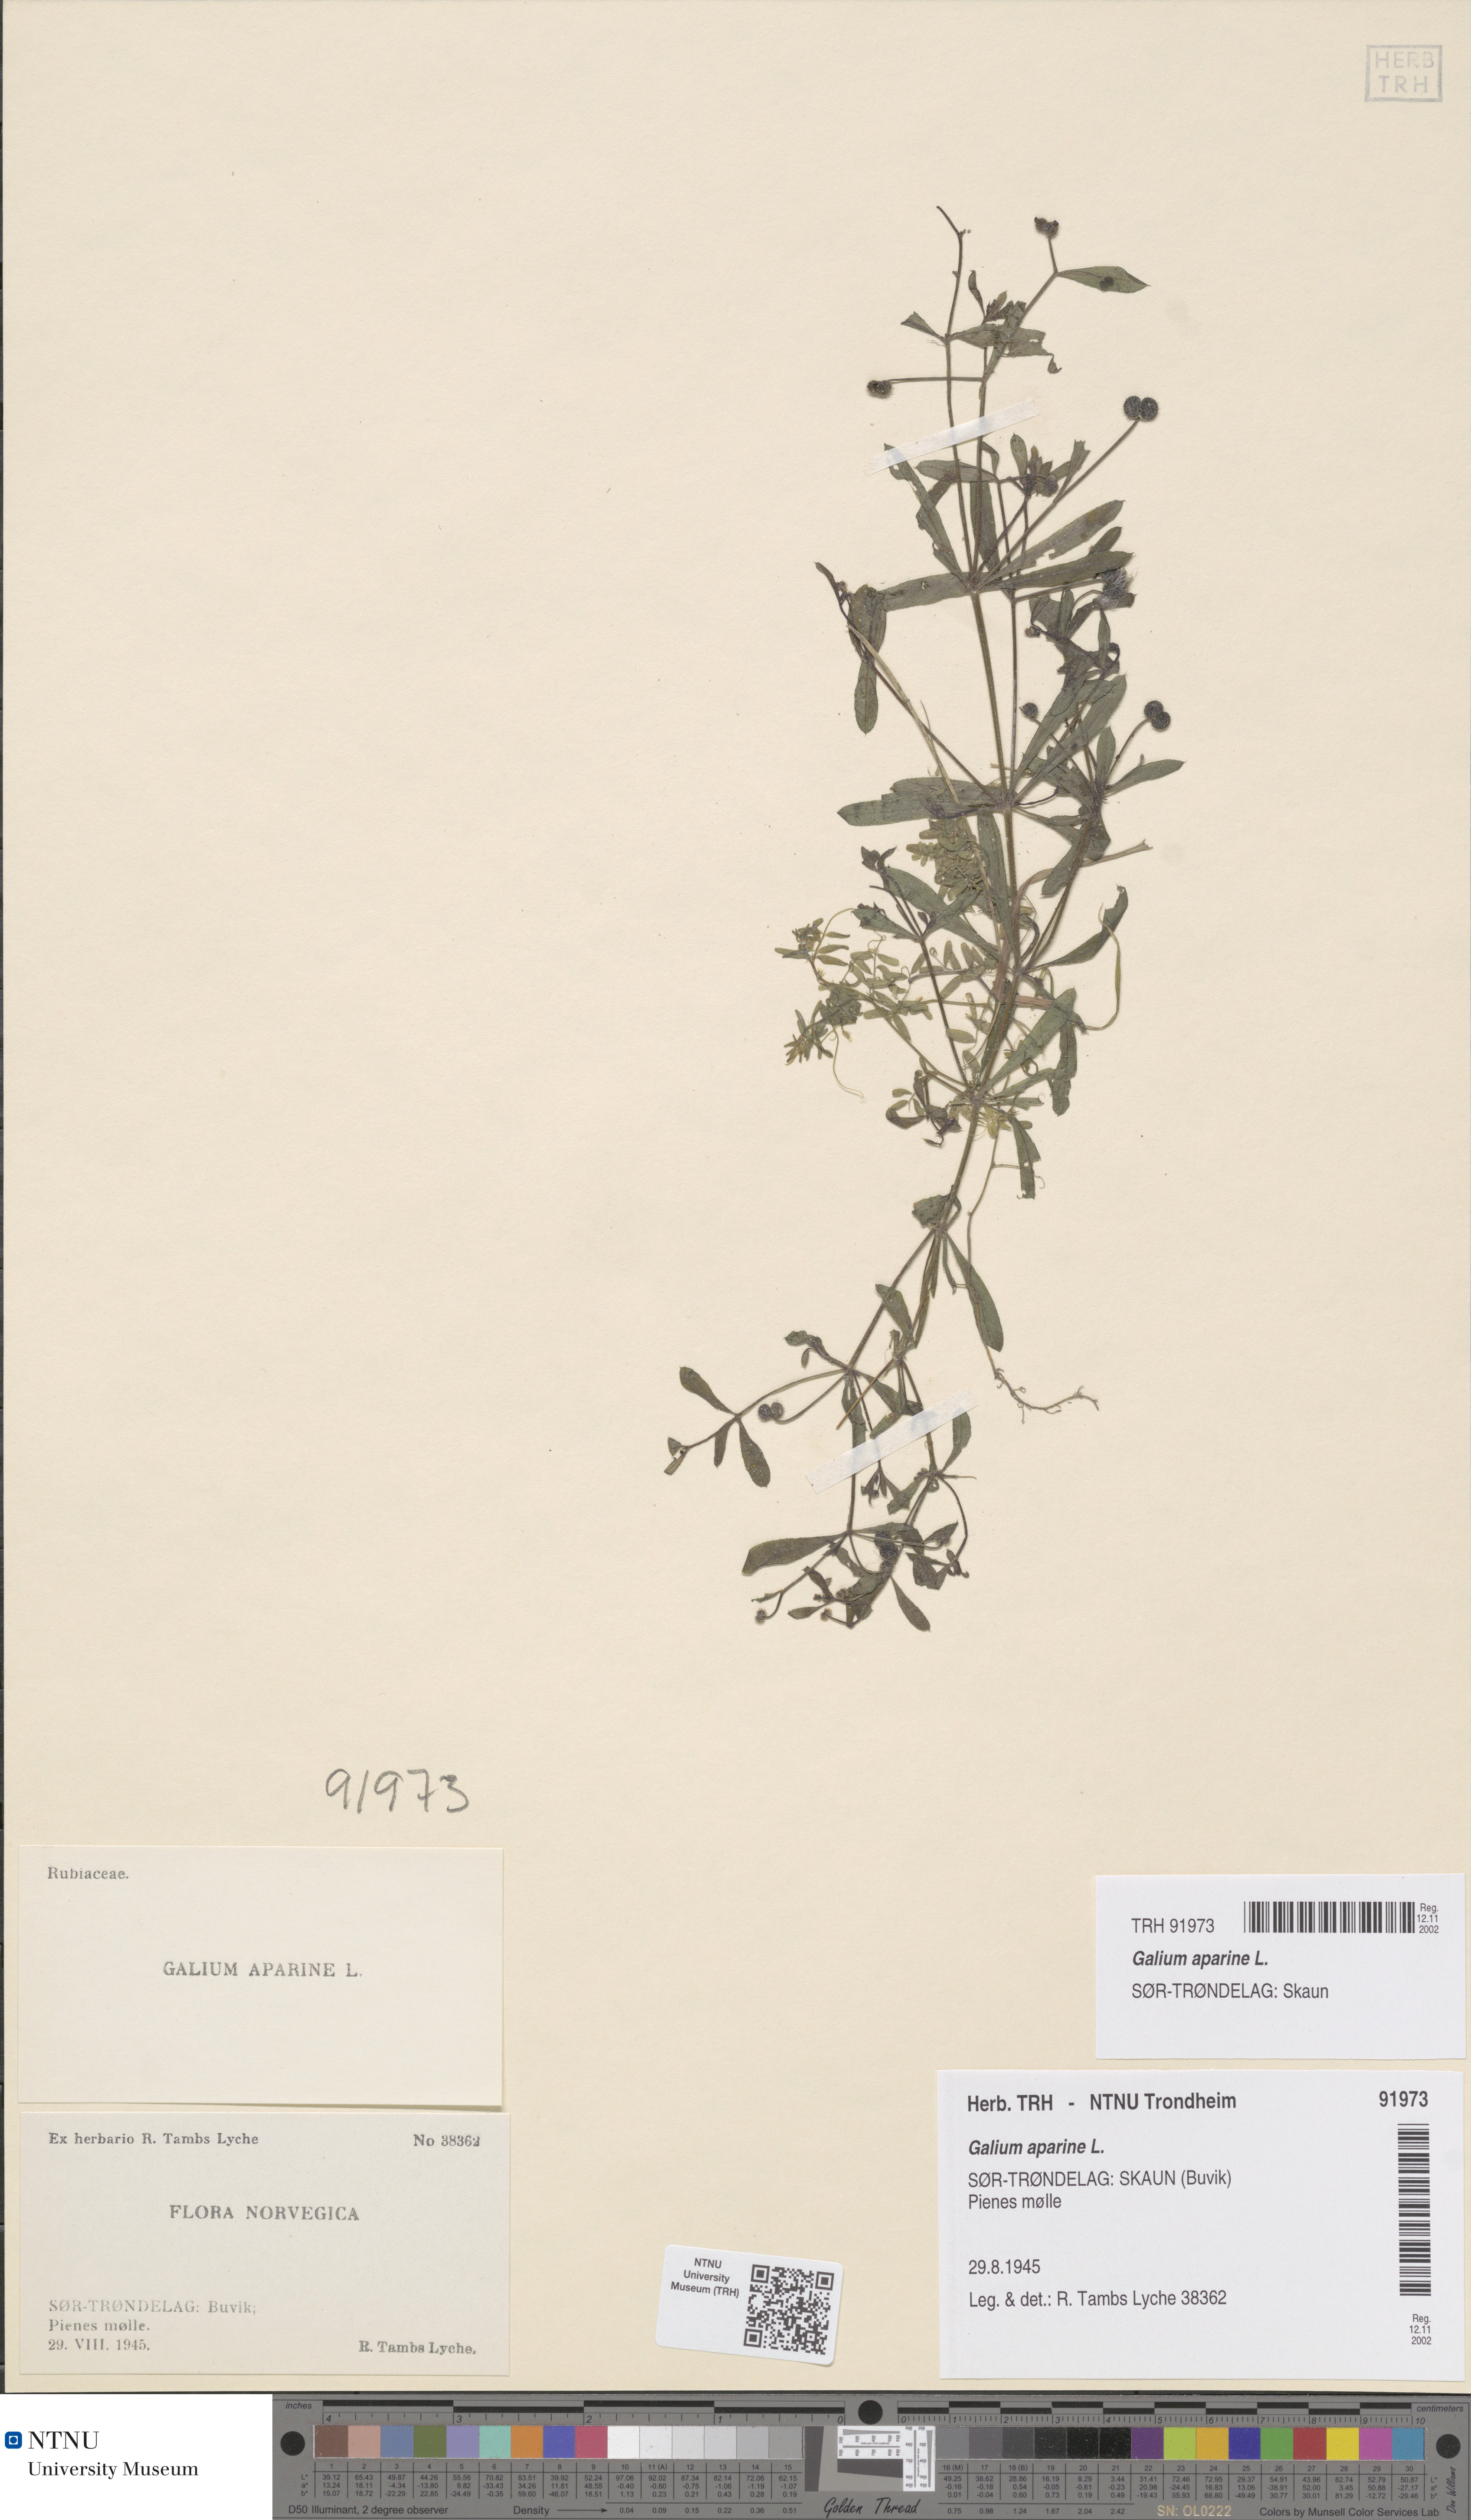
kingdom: Plantae
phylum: Tracheophyta
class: Magnoliopsida
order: Gentianales
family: Rubiaceae
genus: Galium
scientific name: Galium aparine
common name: Cleavers
